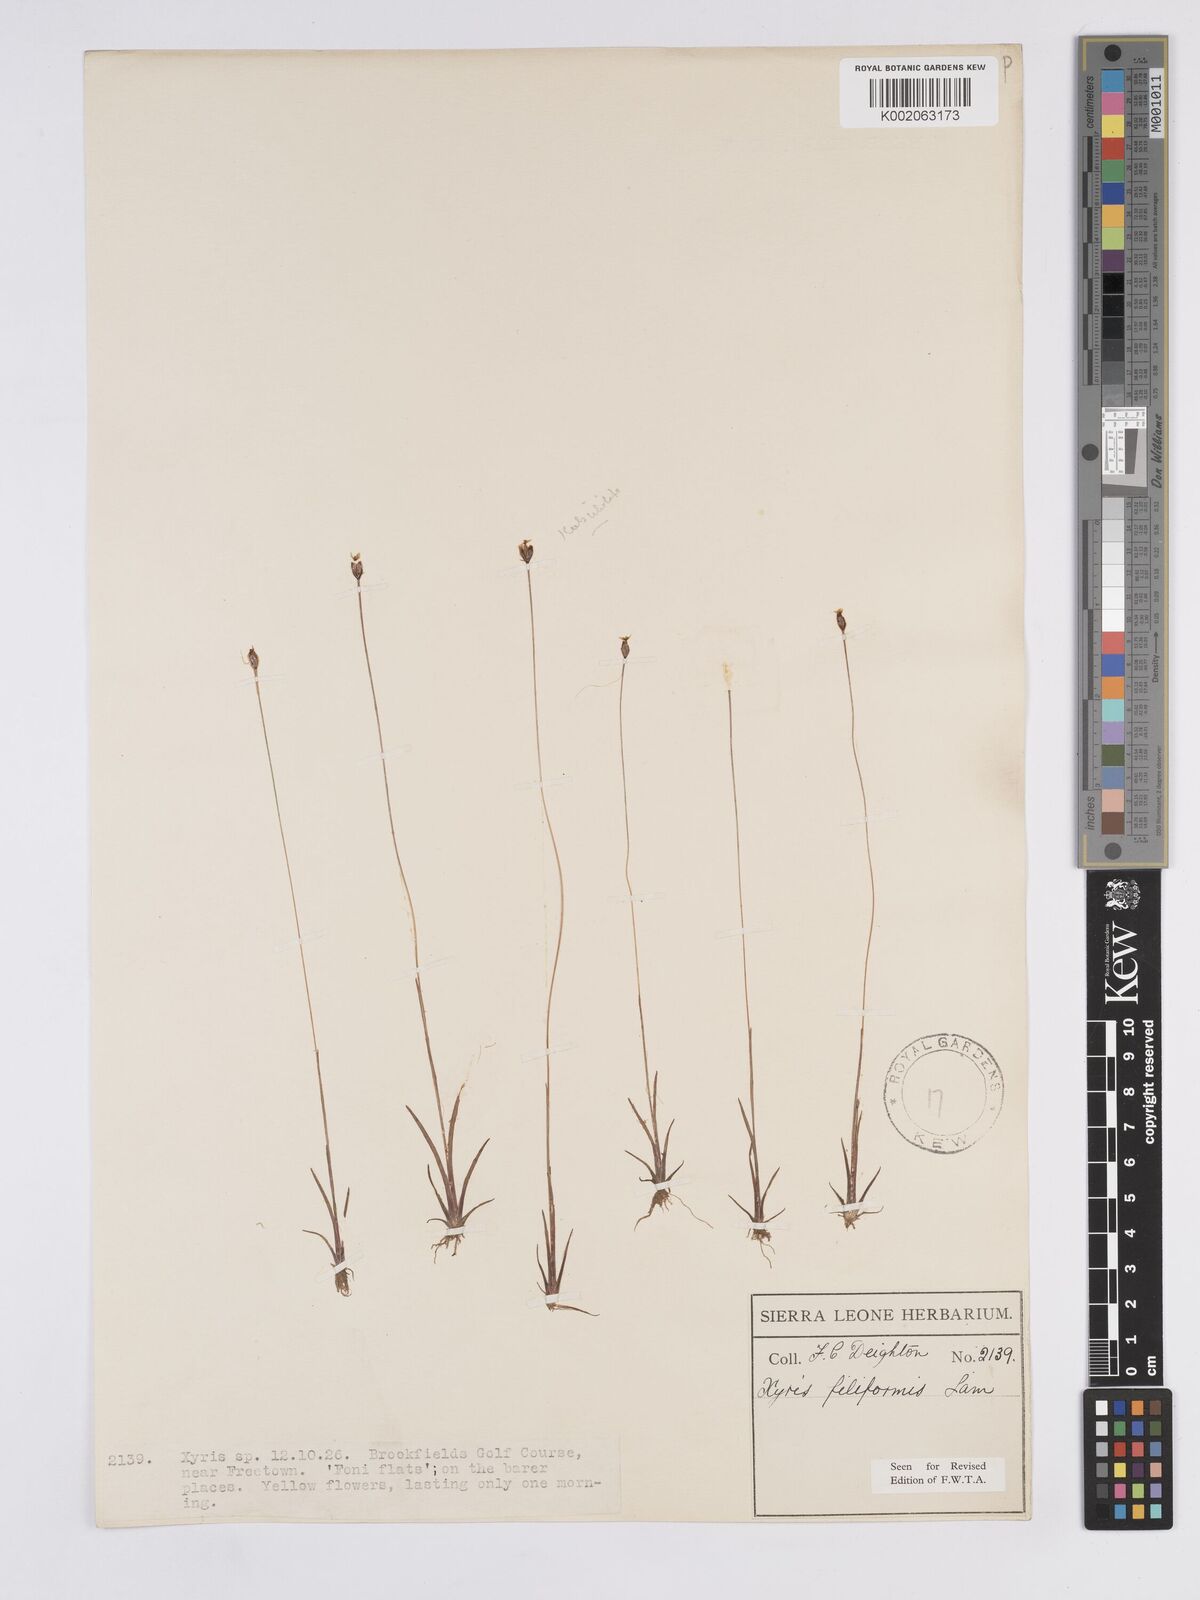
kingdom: Plantae
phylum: Tracheophyta
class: Liliopsida
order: Poales
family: Xyridaceae
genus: Xyris
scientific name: Xyris filiformis
